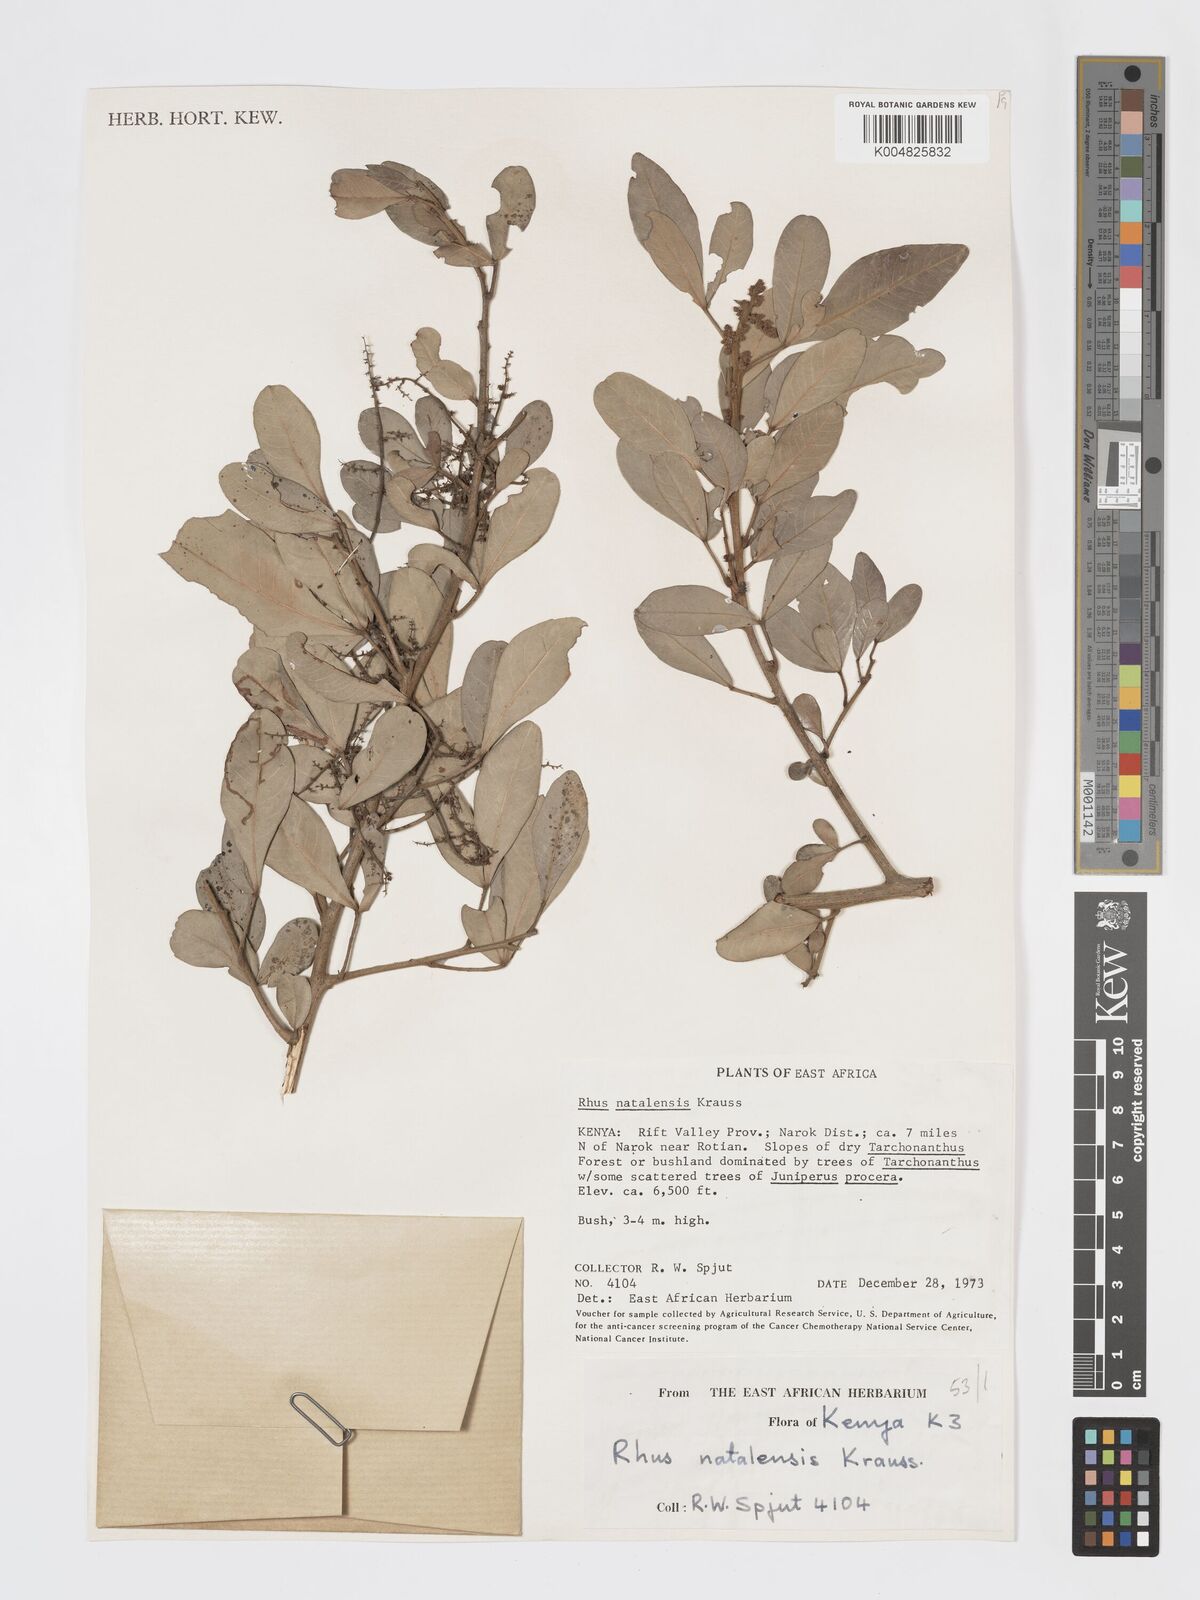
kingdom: Plantae
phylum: Tracheophyta
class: Magnoliopsida
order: Sapindales
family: Anacardiaceae
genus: Searsia
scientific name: Searsia natalensis
